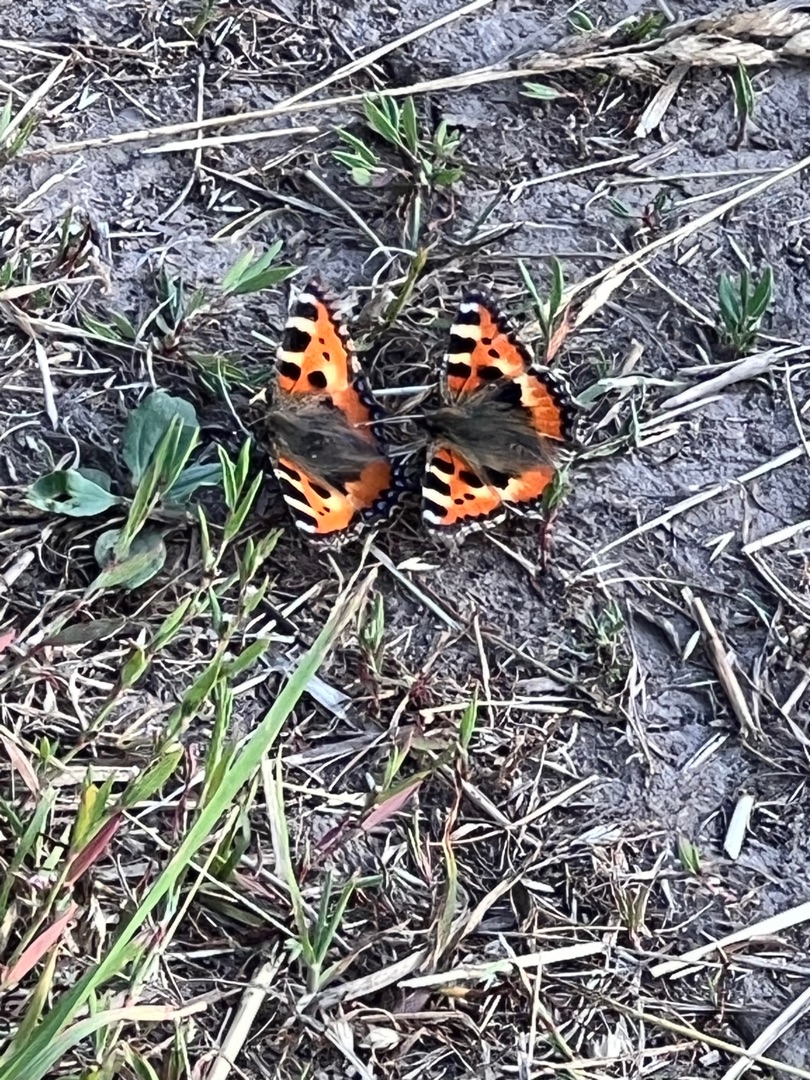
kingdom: Animalia
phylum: Arthropoda
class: Insecta
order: Lepidoptera
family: Nymphalidae
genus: Aglais
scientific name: Aglais urticae
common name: Nældens takvinge
